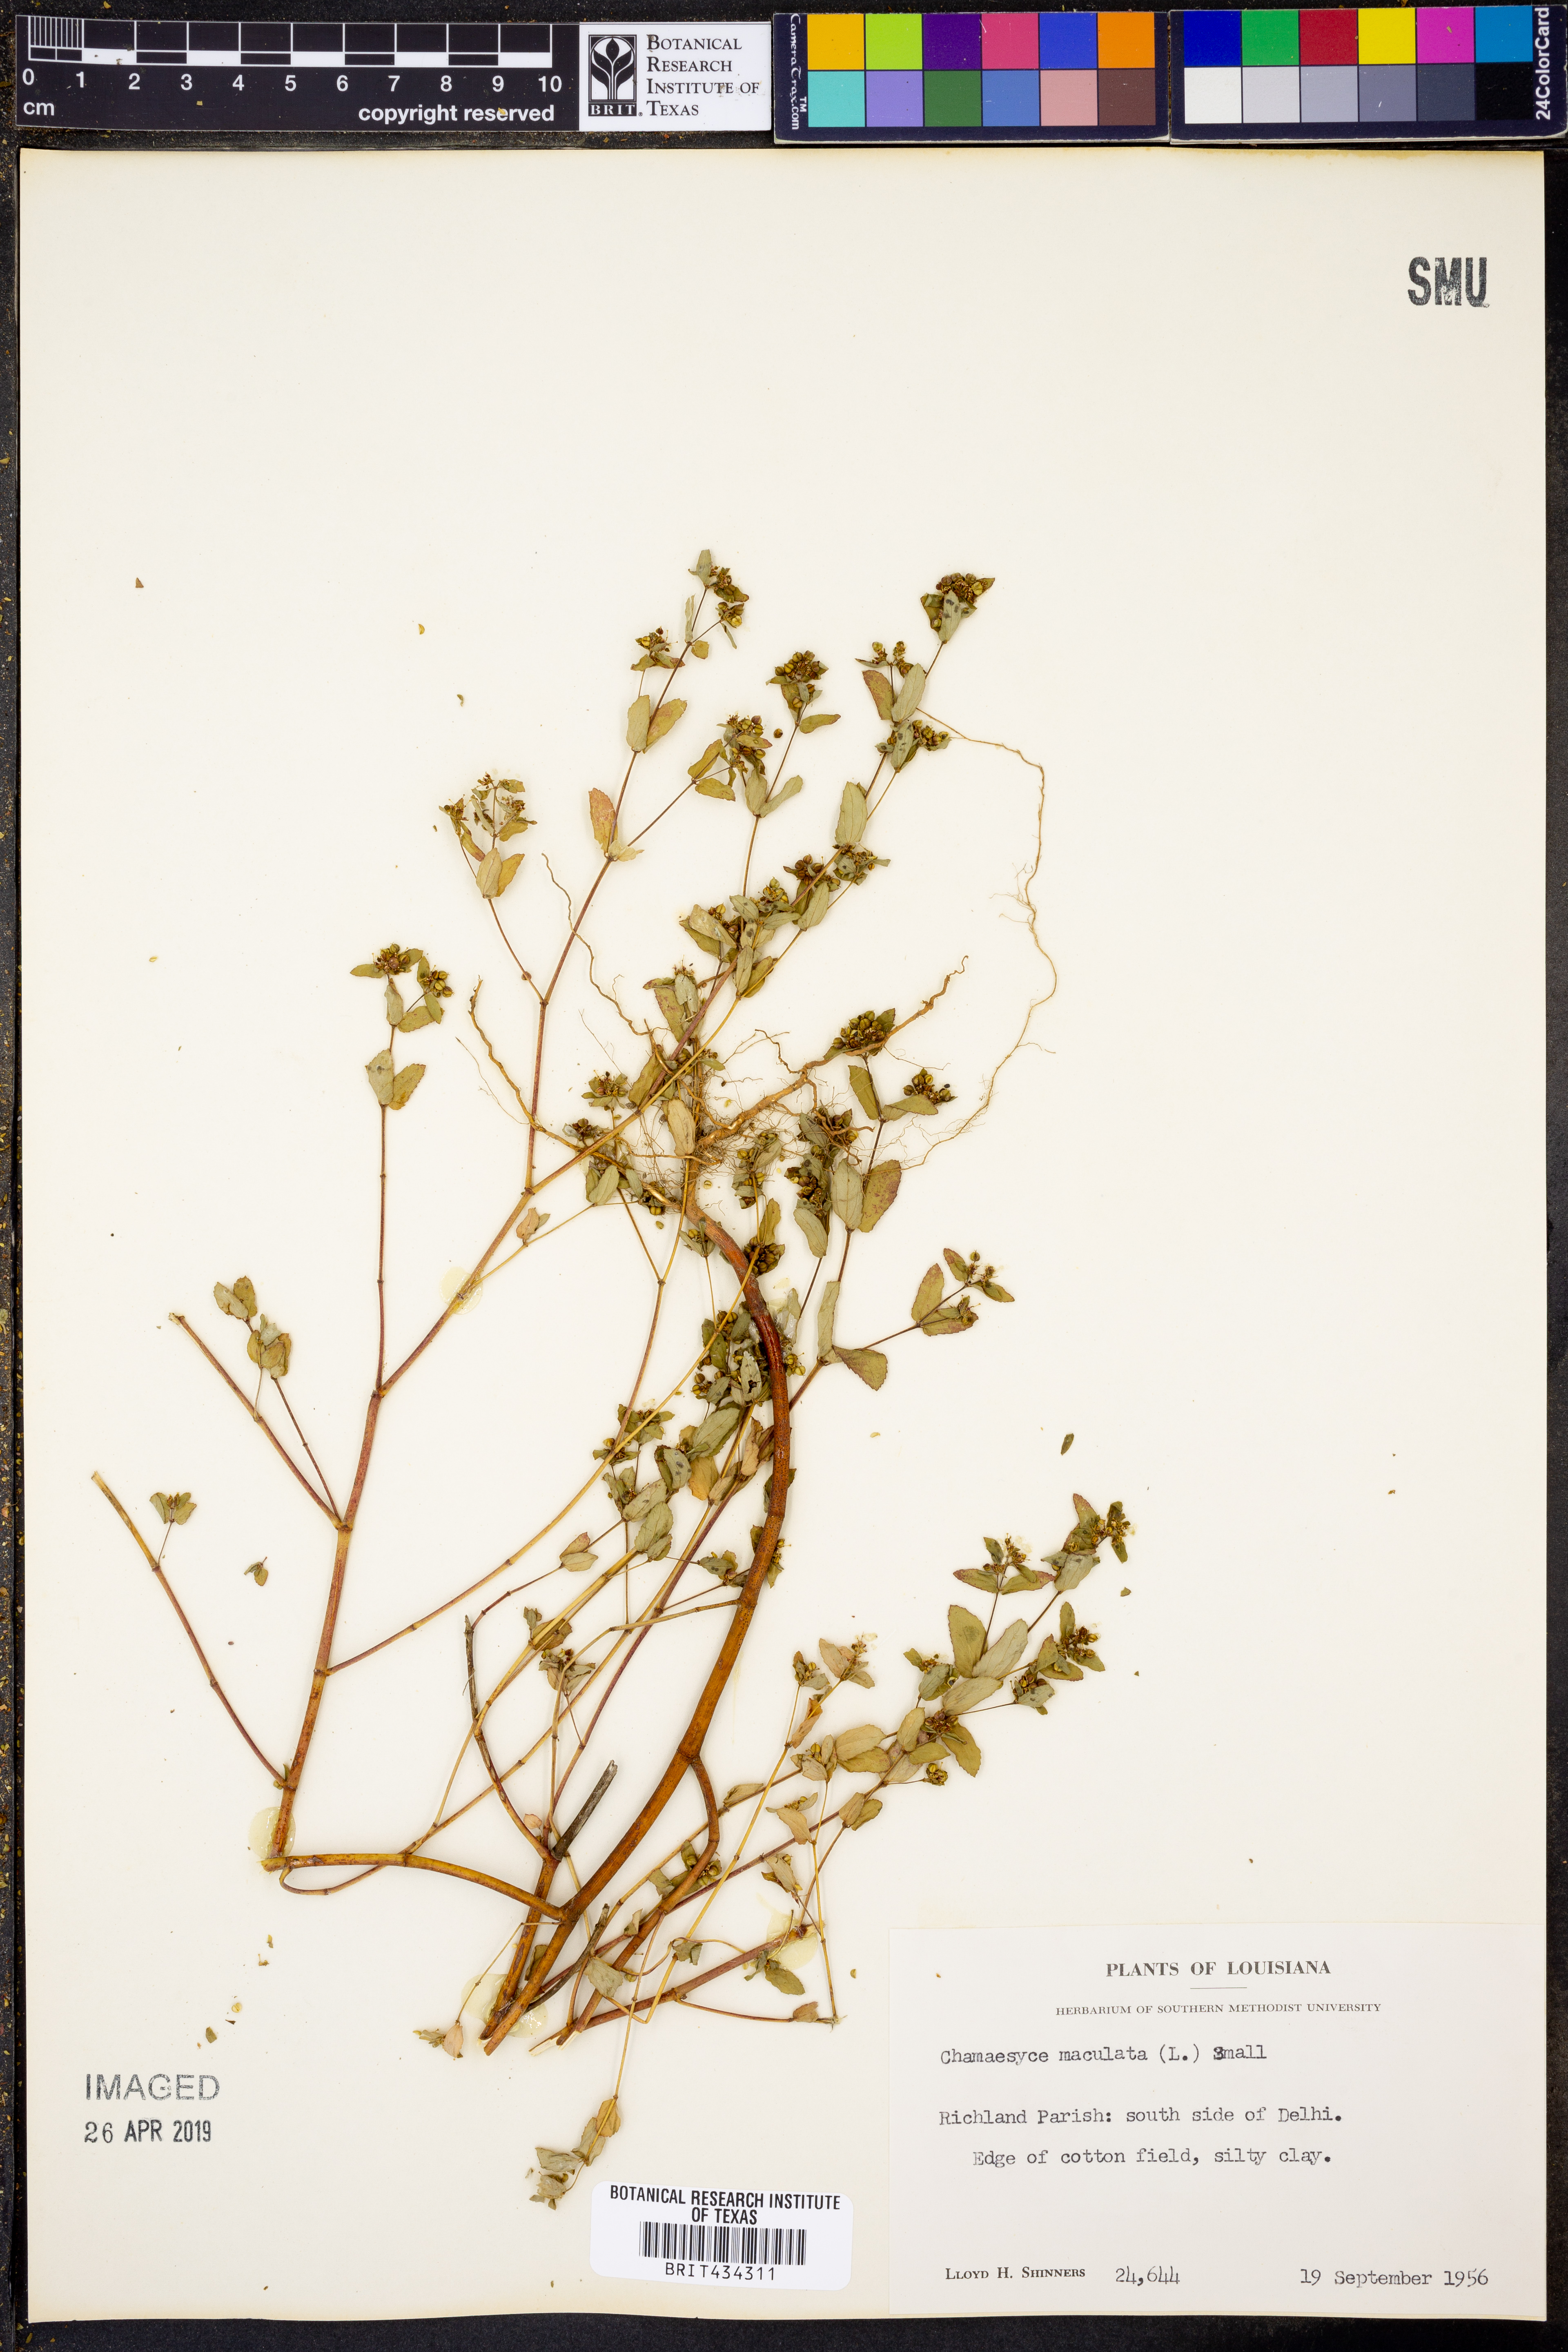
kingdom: Plantae
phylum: Tracheophyta
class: Magnoliopsida
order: Malpighiales
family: Euphorbiaceae
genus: Euphorbia
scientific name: Euphorbia maculata
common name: Spotted spurge
